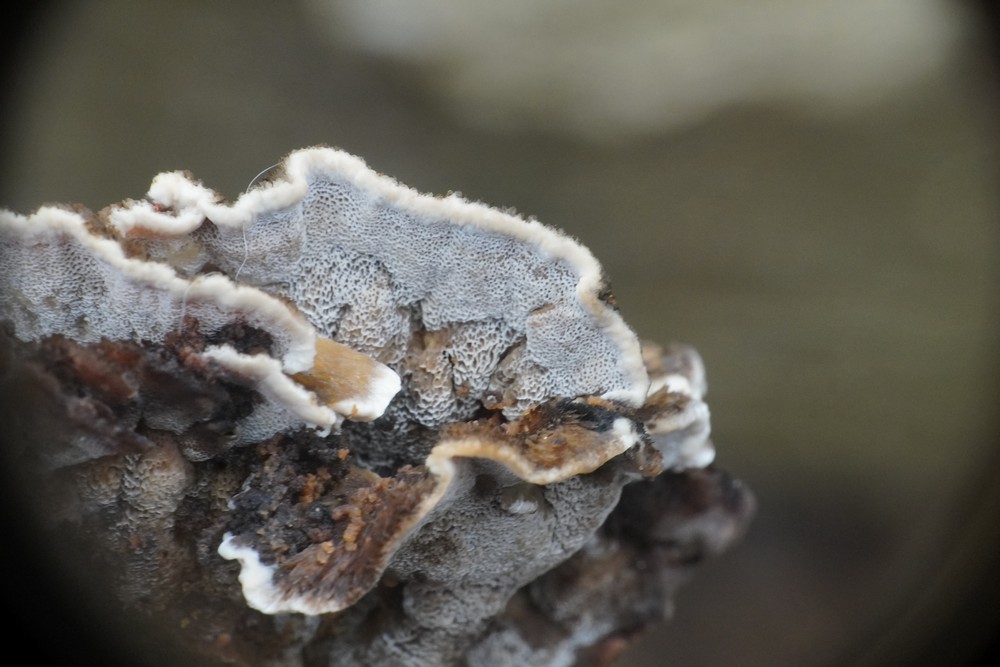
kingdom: Fungi
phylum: Basidiomycota
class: Agaricomycetes
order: Polyporales
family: Phanerochaetaceae
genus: Bjerkandera
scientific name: Bjerkandera adusta
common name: sveden sodporesvamp
